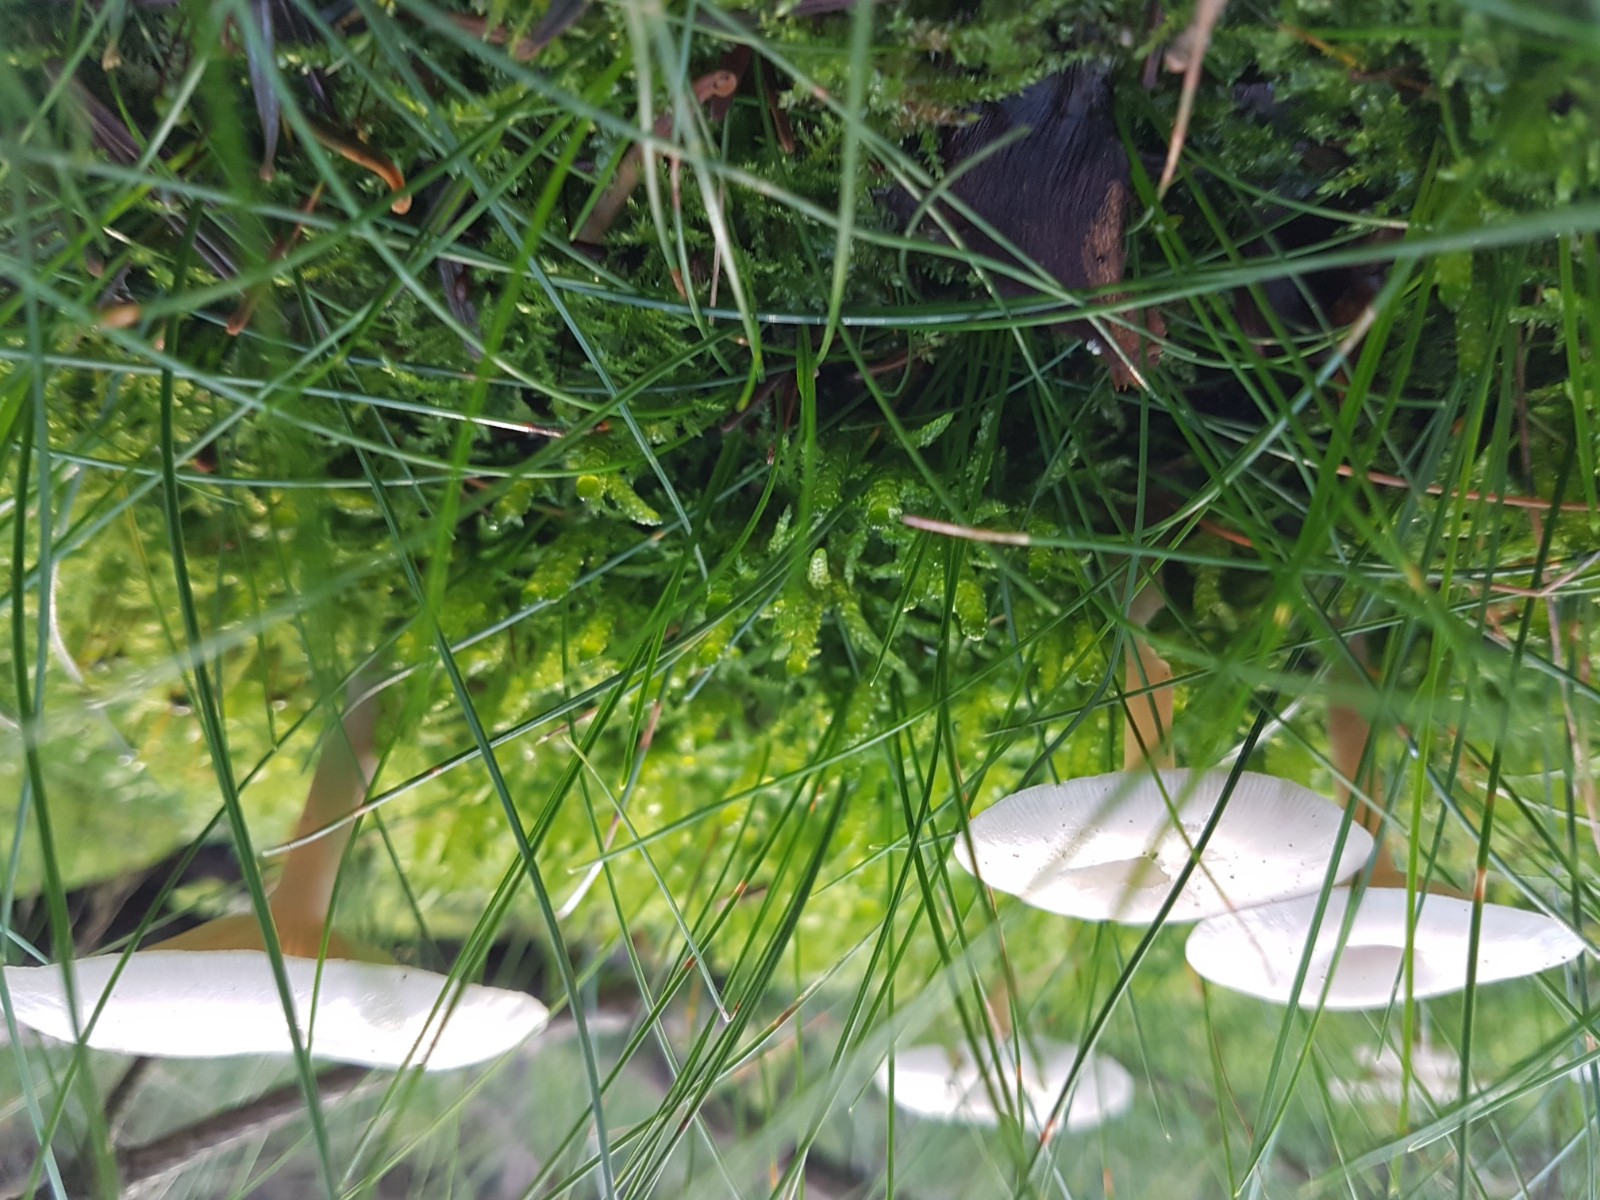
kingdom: Fungi
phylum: Basidiomycota
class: Agaricomycetes
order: Agaricales
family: Tricholomataceae
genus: Clitocybe
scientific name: Clitocybe
